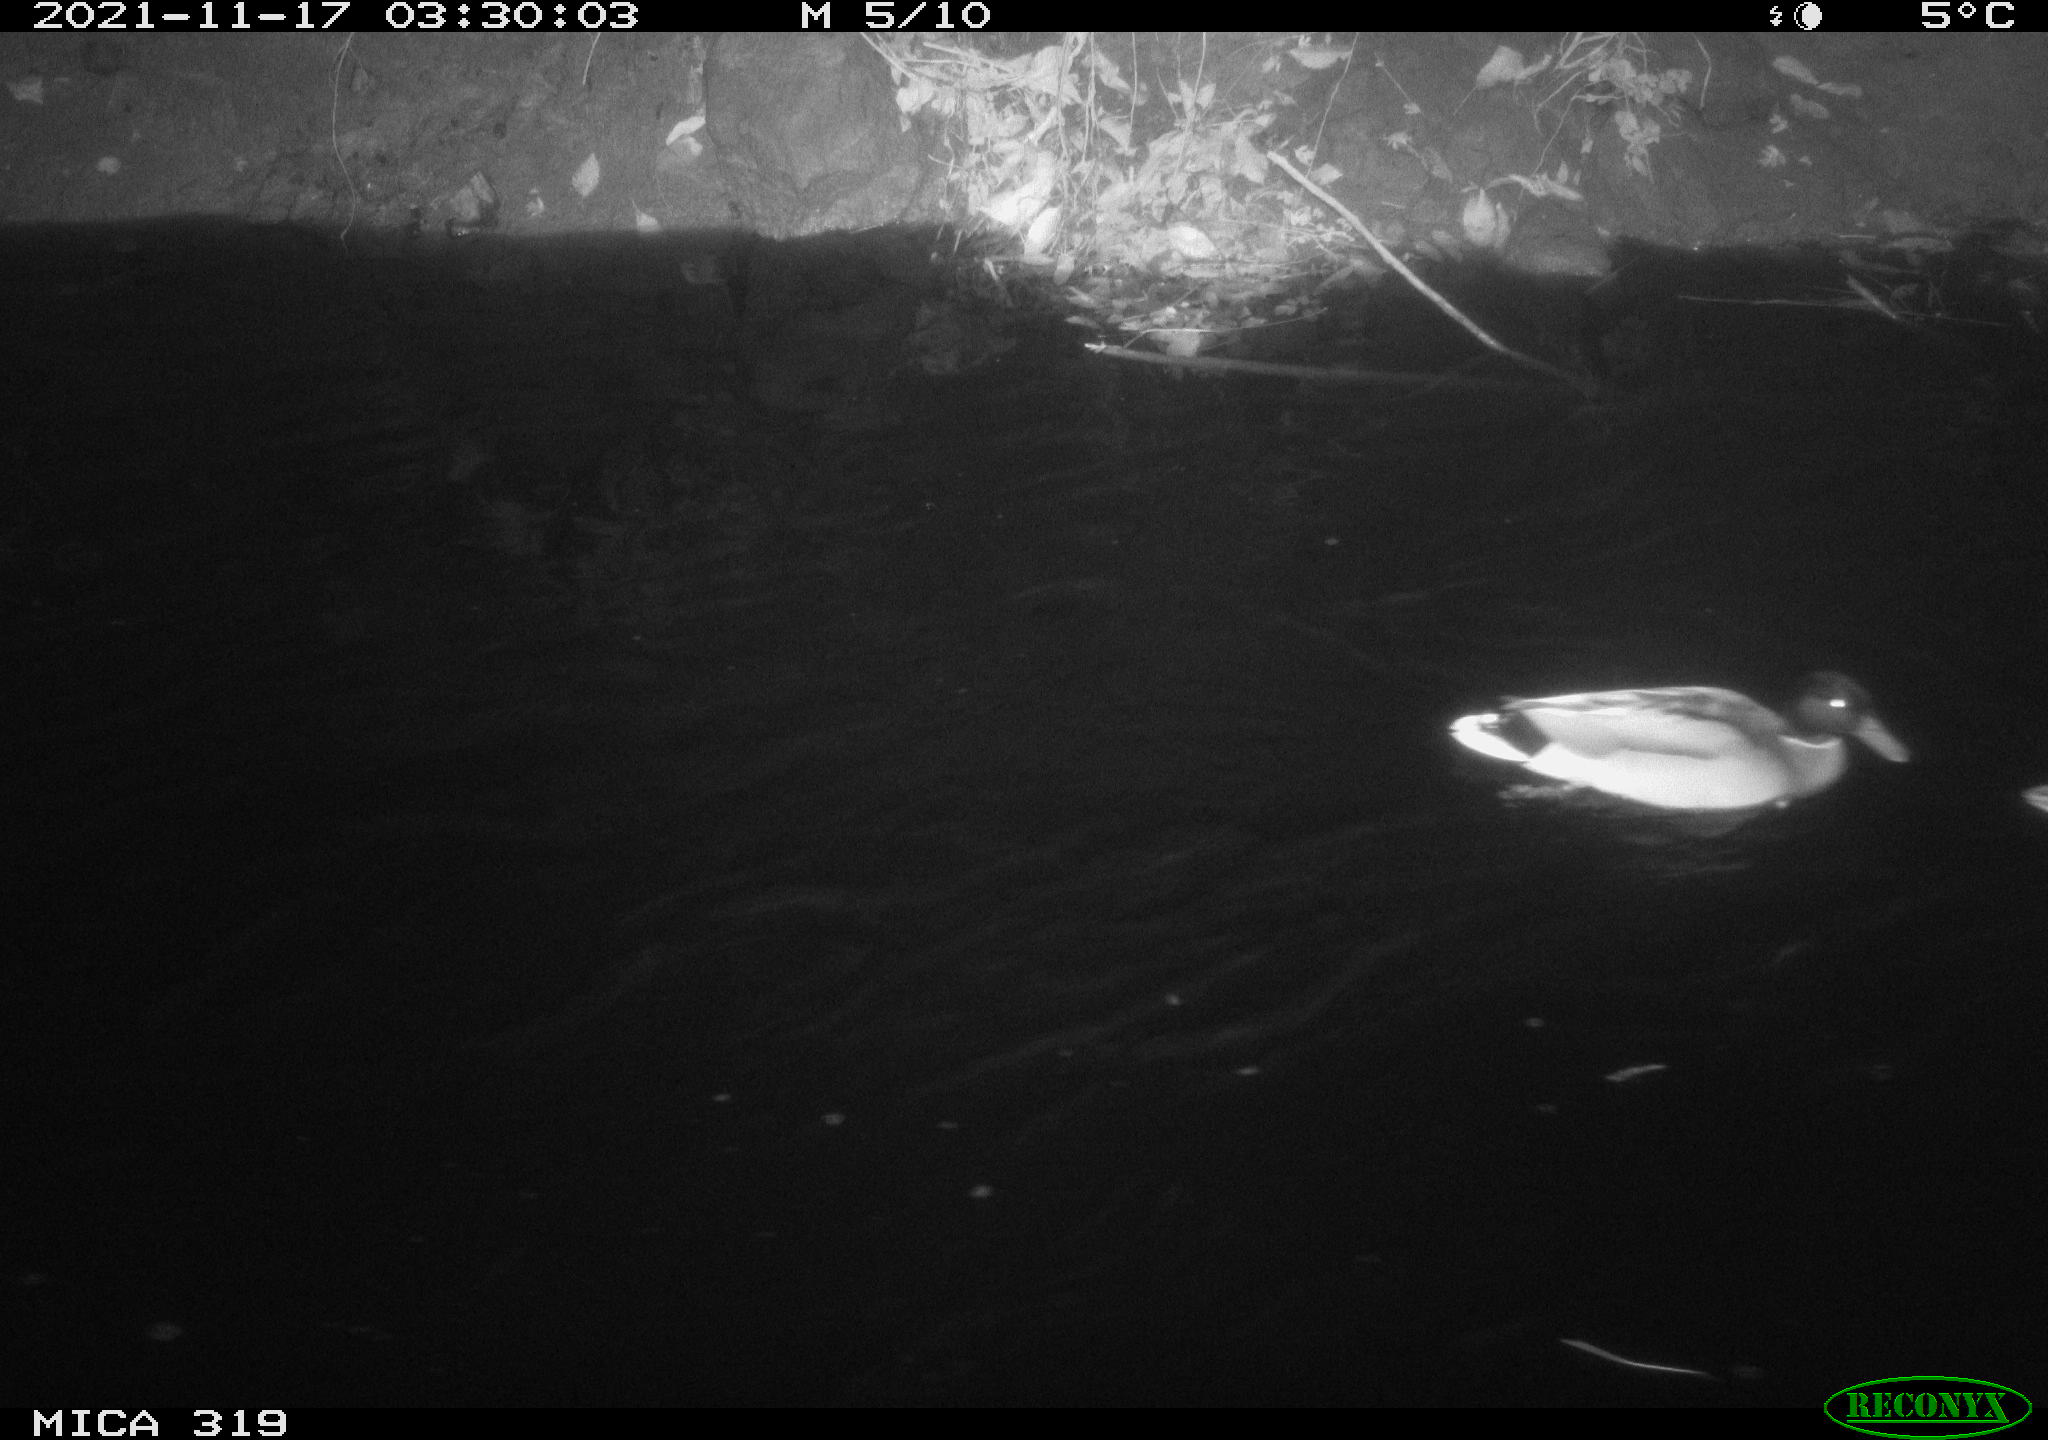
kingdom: Animalia
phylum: Chordata
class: Aves
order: Anseriformes
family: Anatidae
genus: Anas
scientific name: Anas platyrhynchos
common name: Mallard
